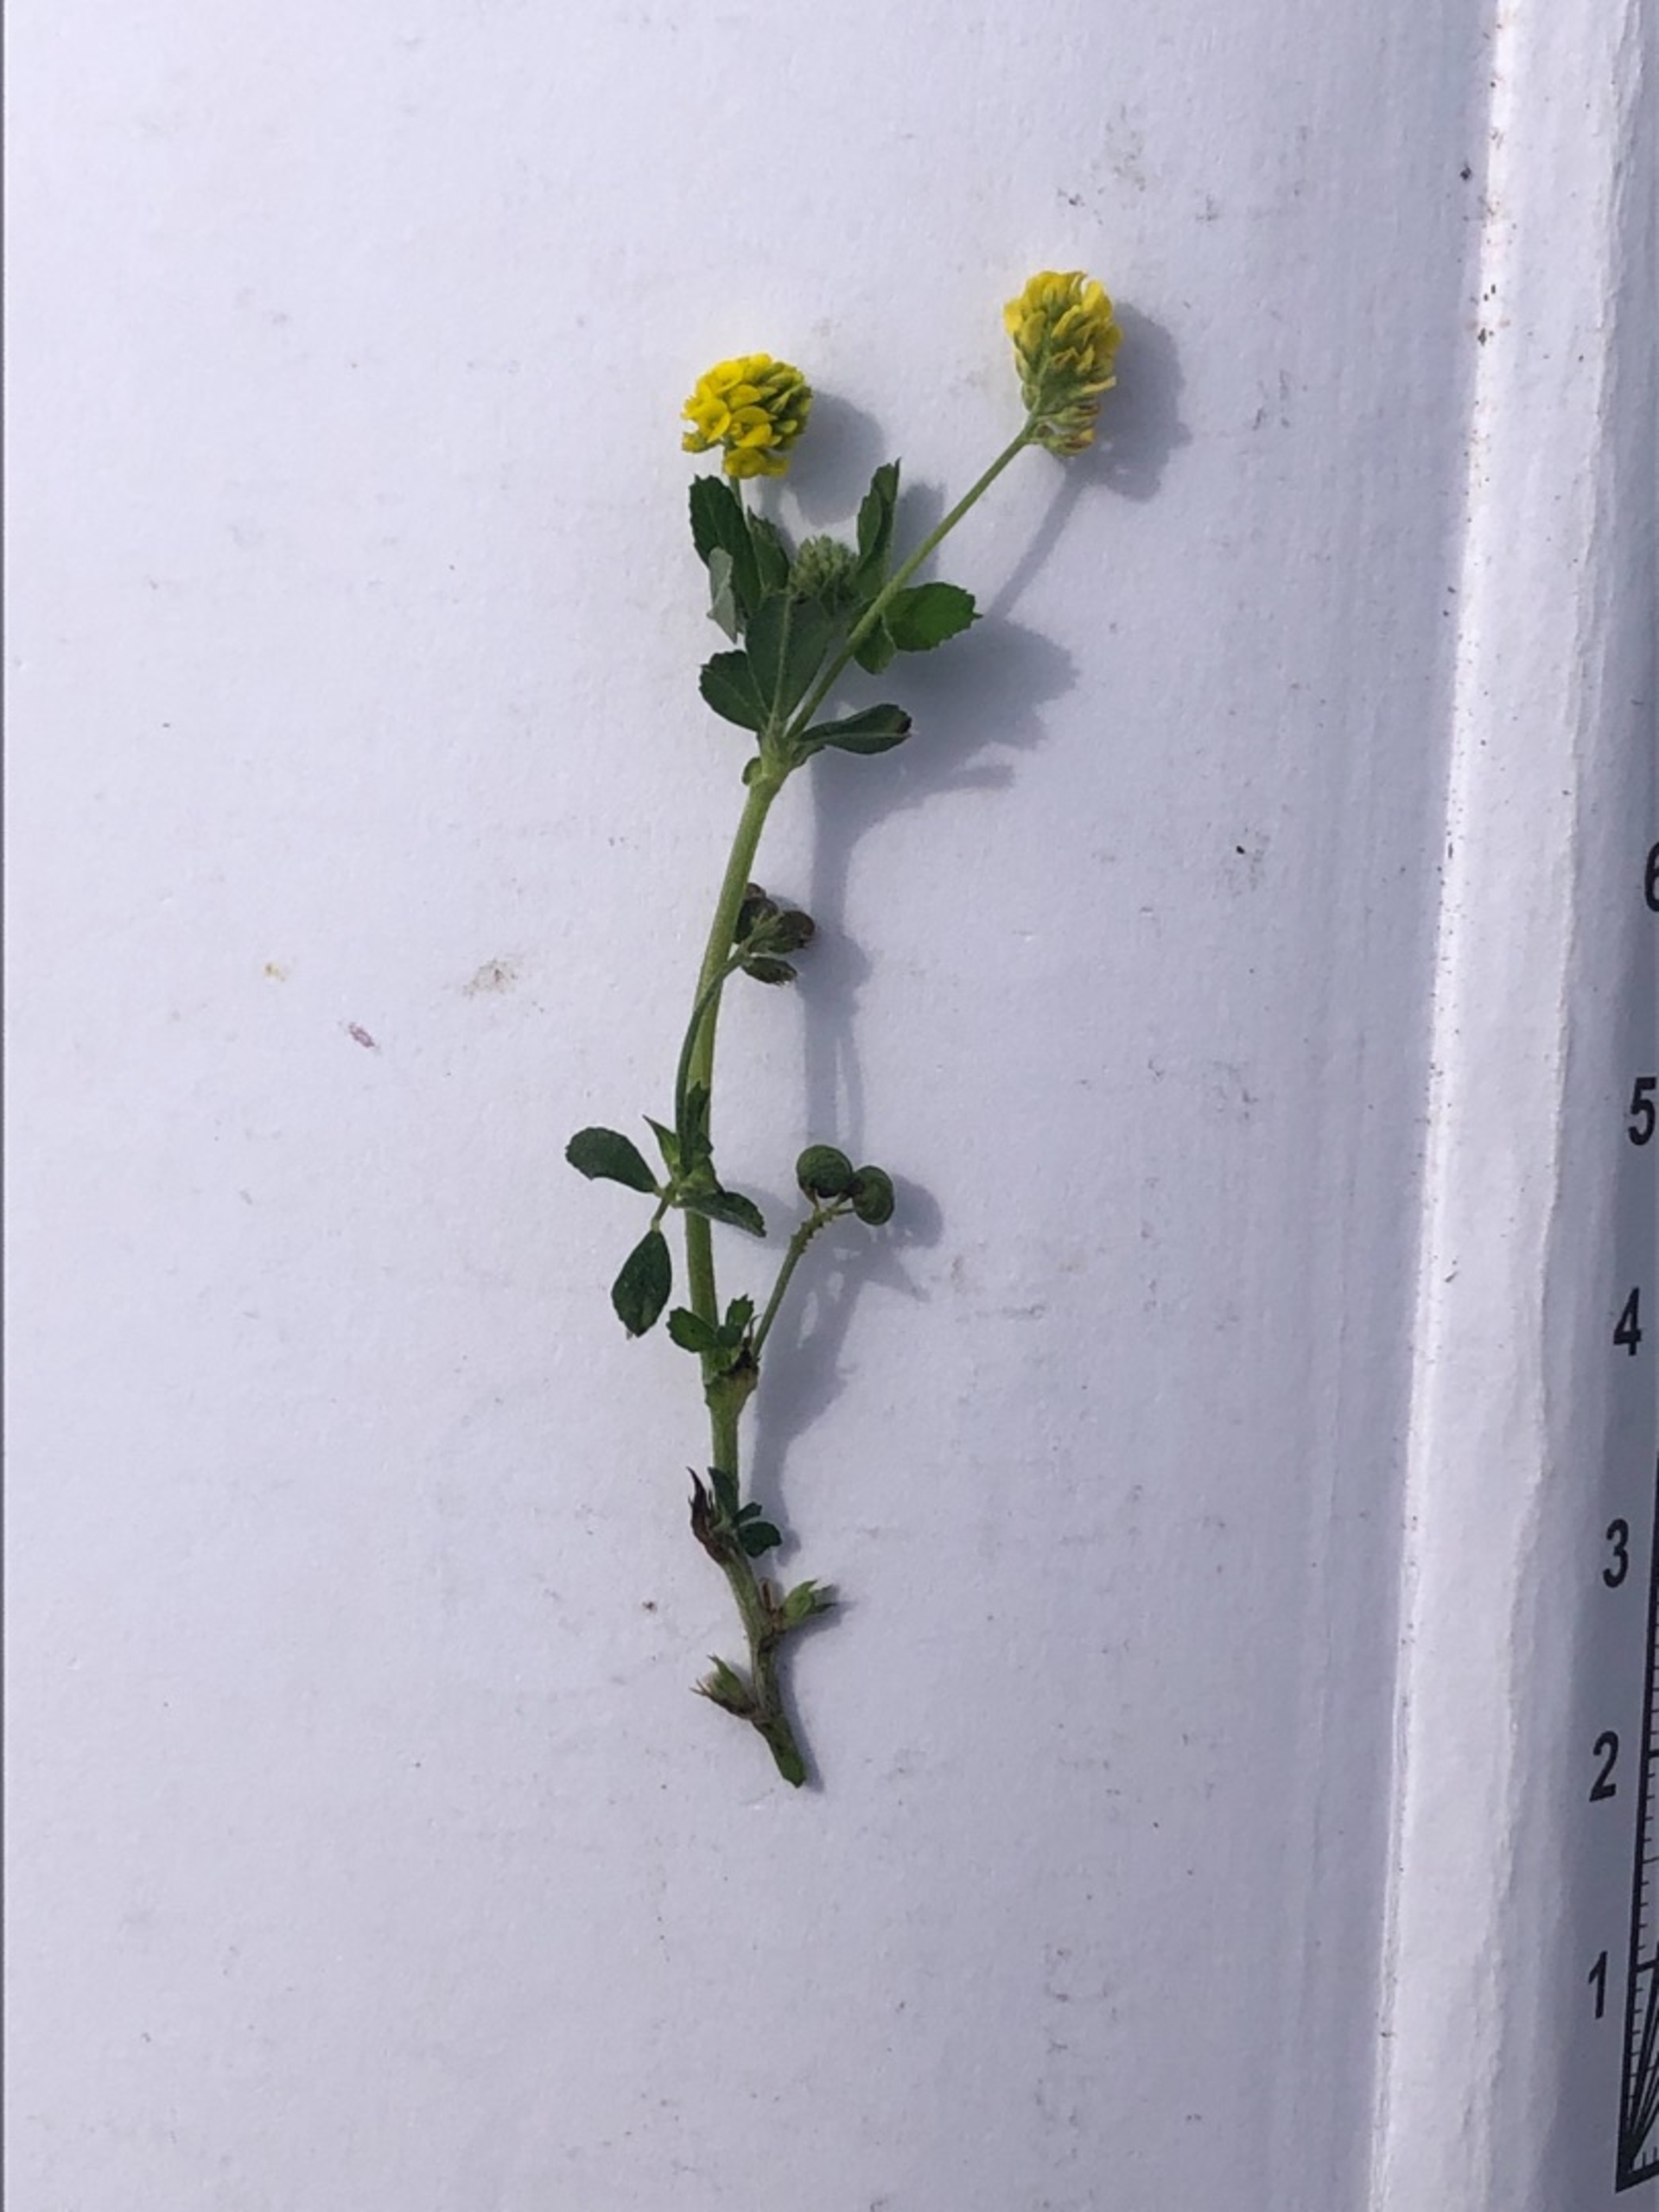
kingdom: Plantae
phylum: Tracheophyta
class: Magnoliopsida
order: Fabales
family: Fabaceae
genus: Medicago
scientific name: Medicago lupulina
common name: Humle-sneglebælg
